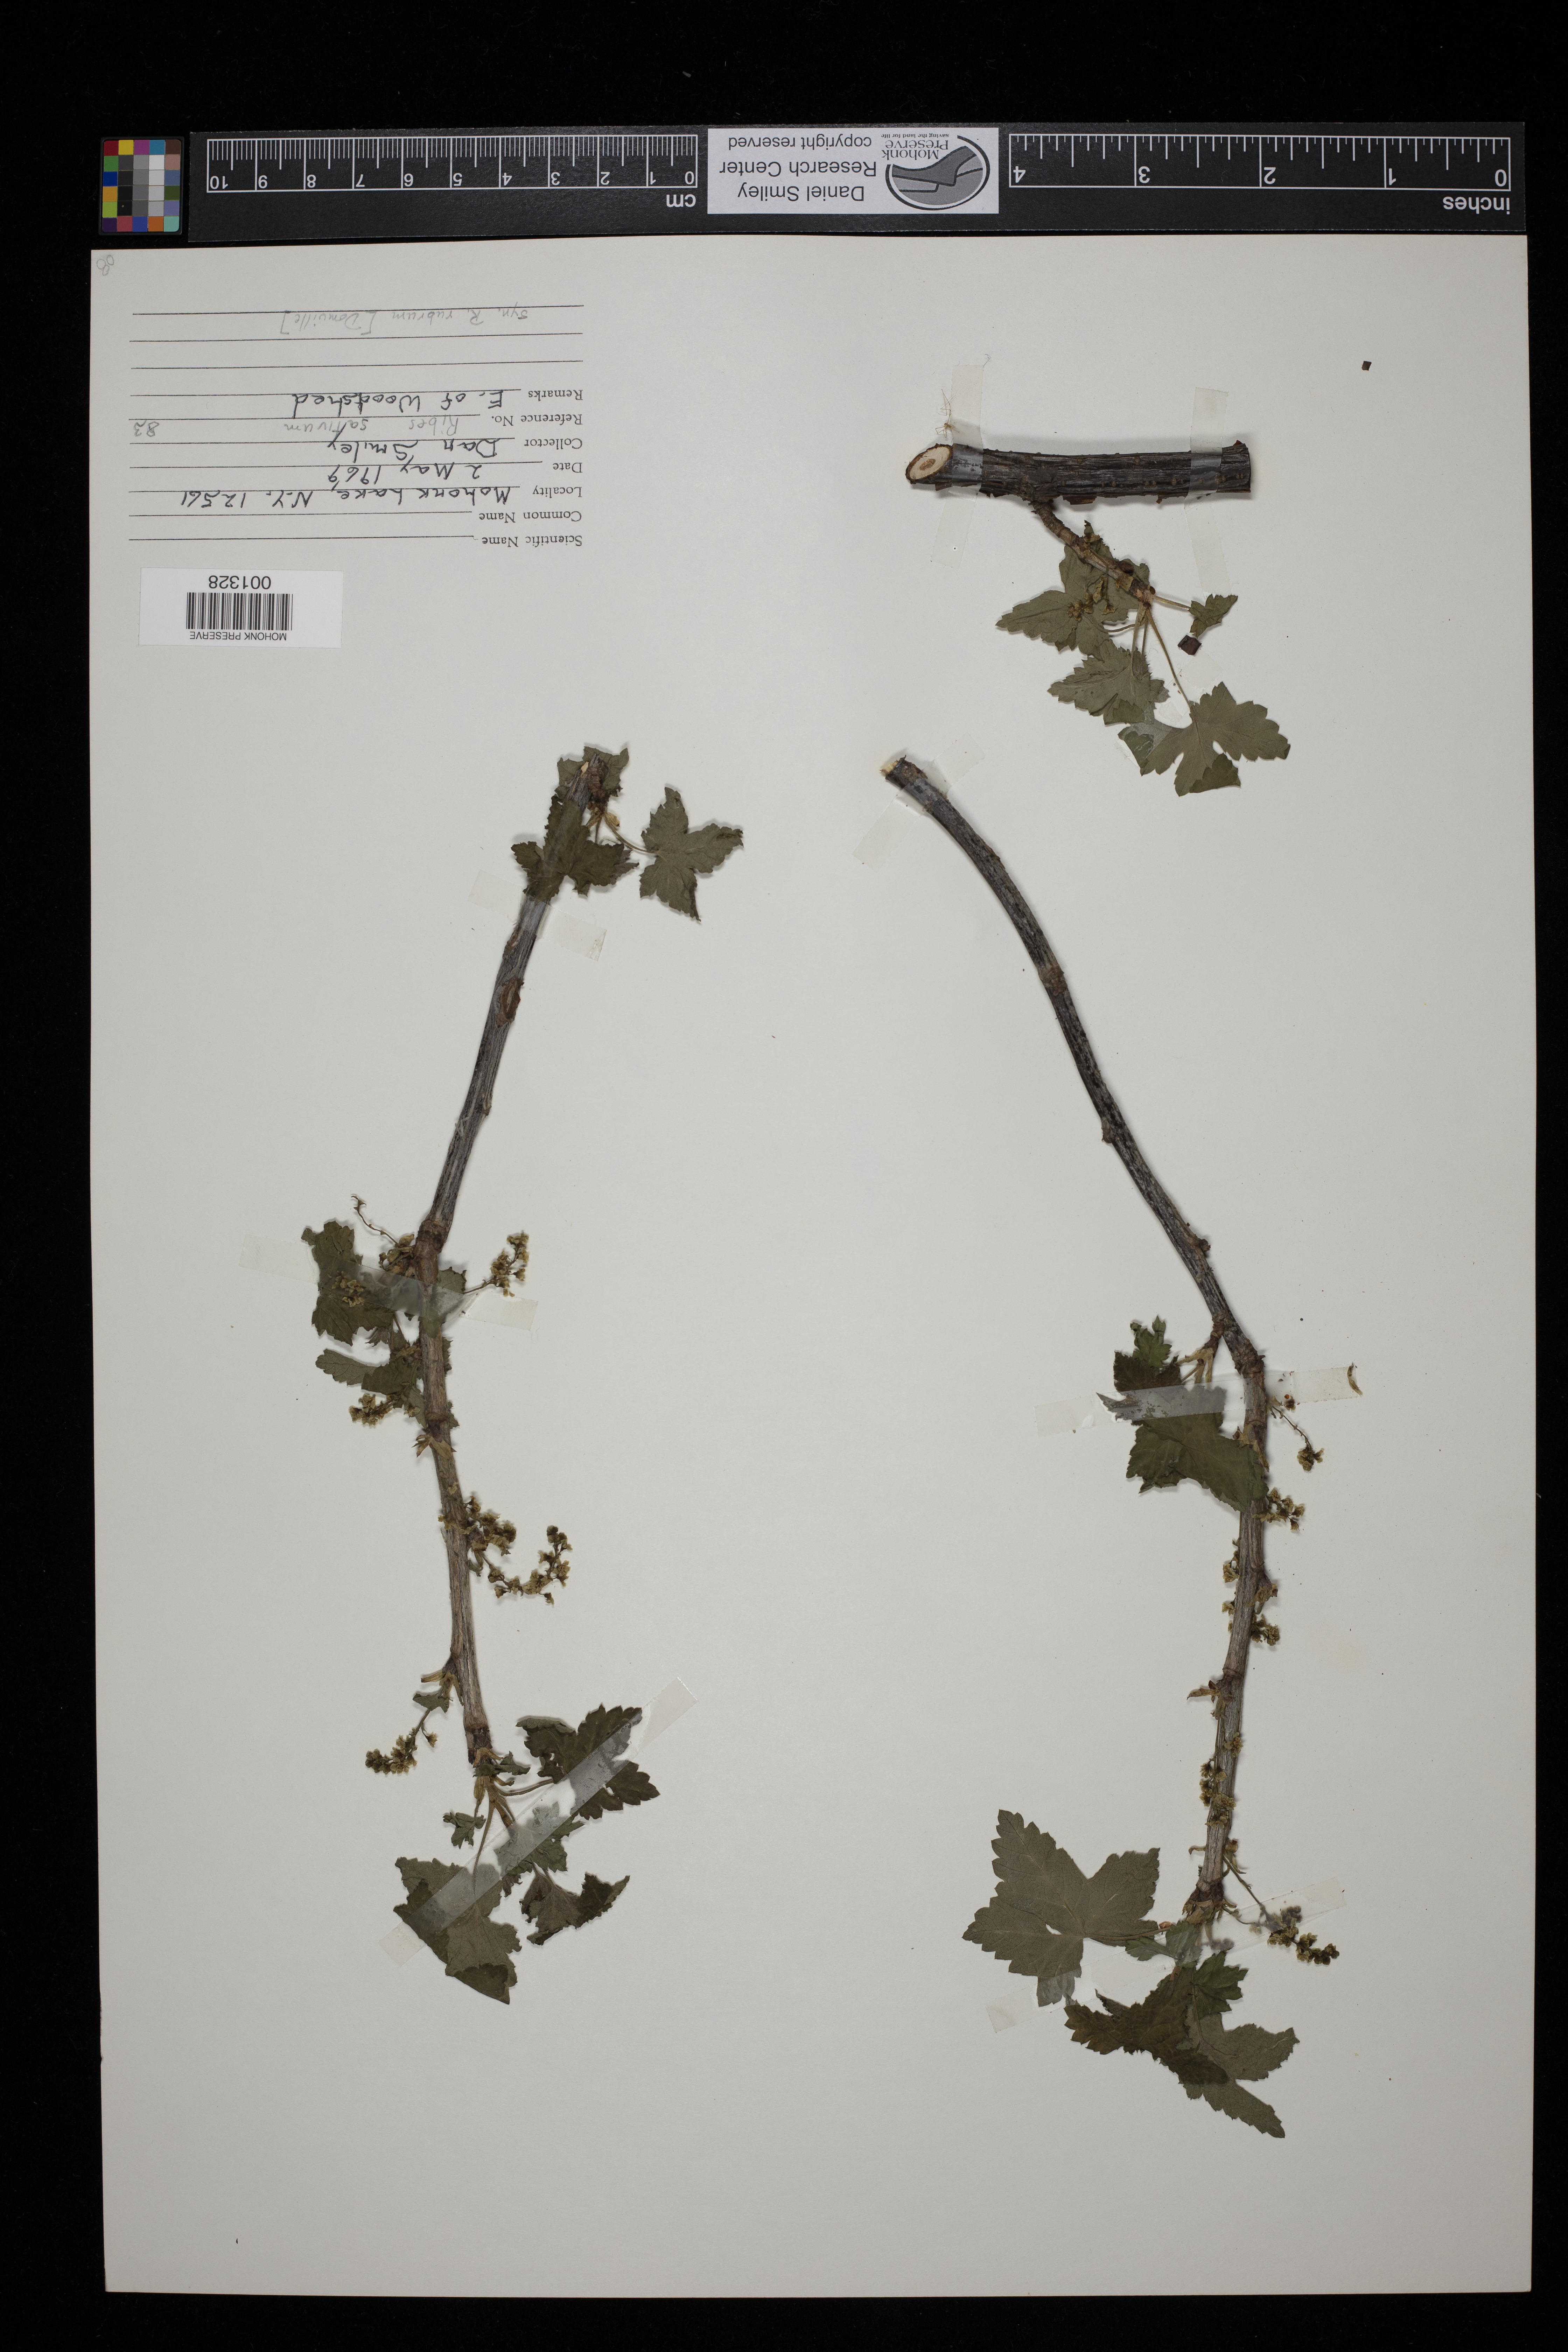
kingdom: Plantae
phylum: Tracheophyta
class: Magnoliopsida
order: Saxifragales
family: Grossulariaceae
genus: Ribes
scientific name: Ribes rubrum
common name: Red currant
